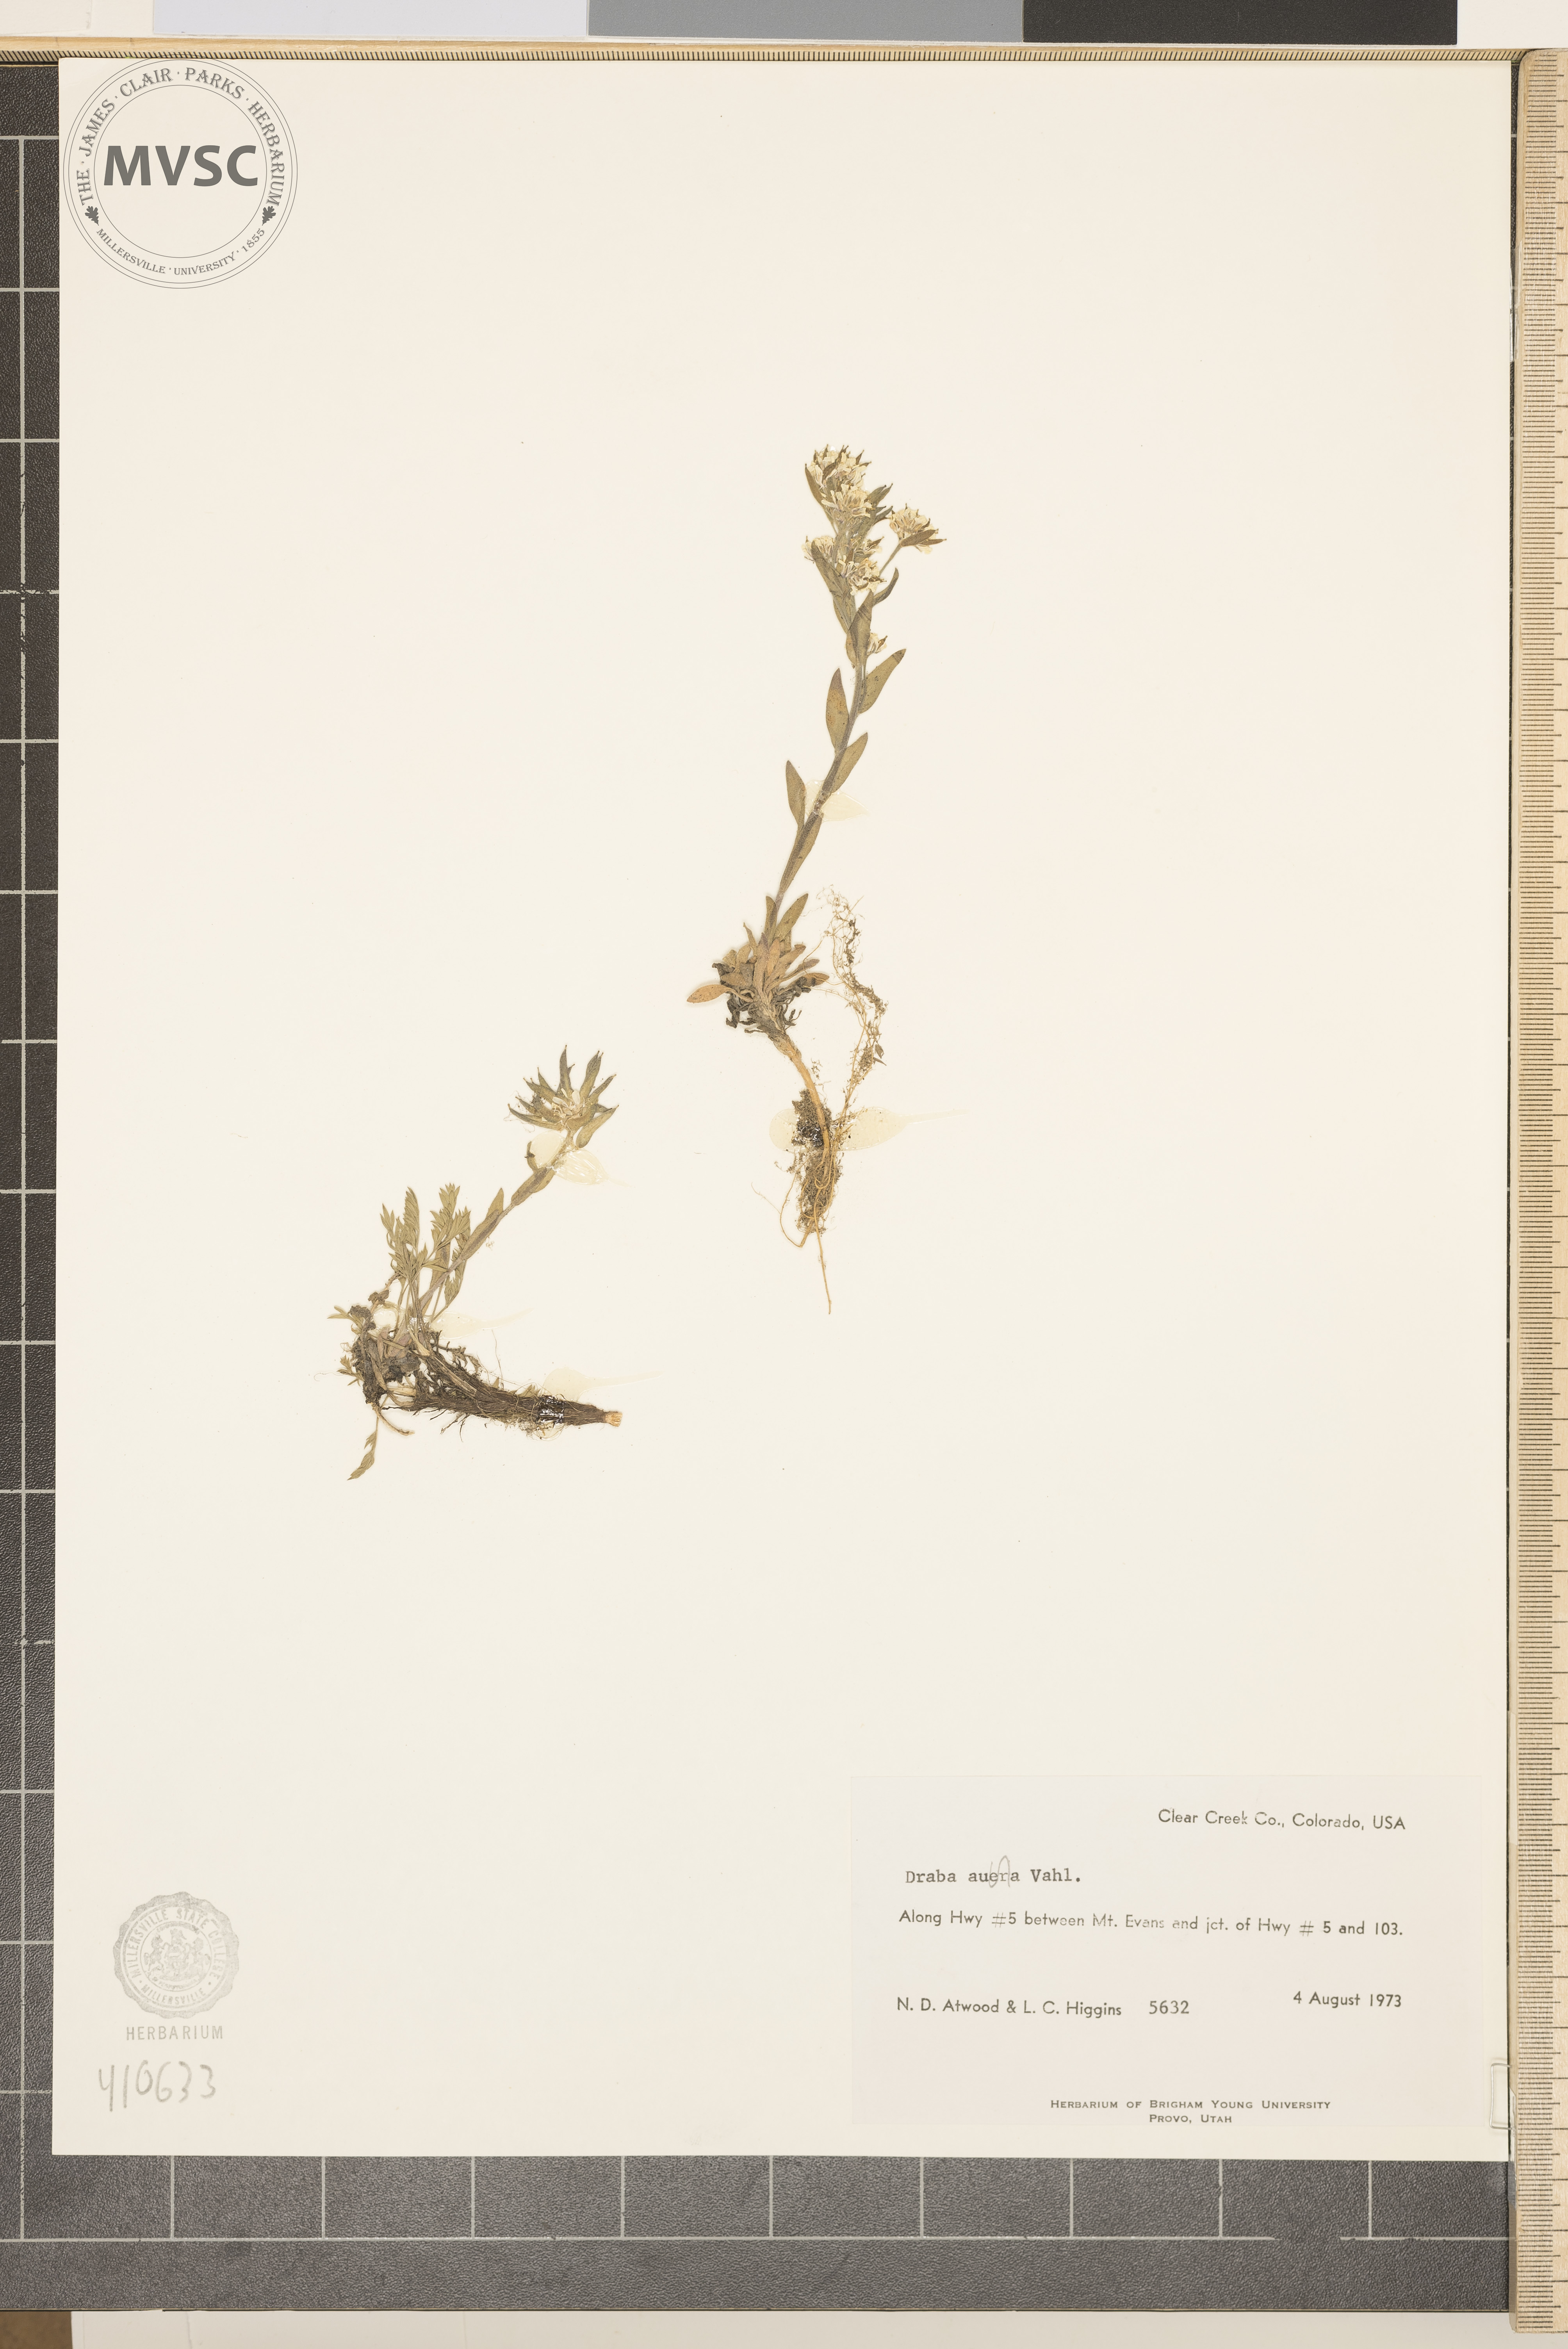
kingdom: Plantae
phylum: Tracheophyta
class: Magnoliopsida
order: Brassicales
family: Brassicaceae
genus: Draba
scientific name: Draba aurea
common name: Golden draba
